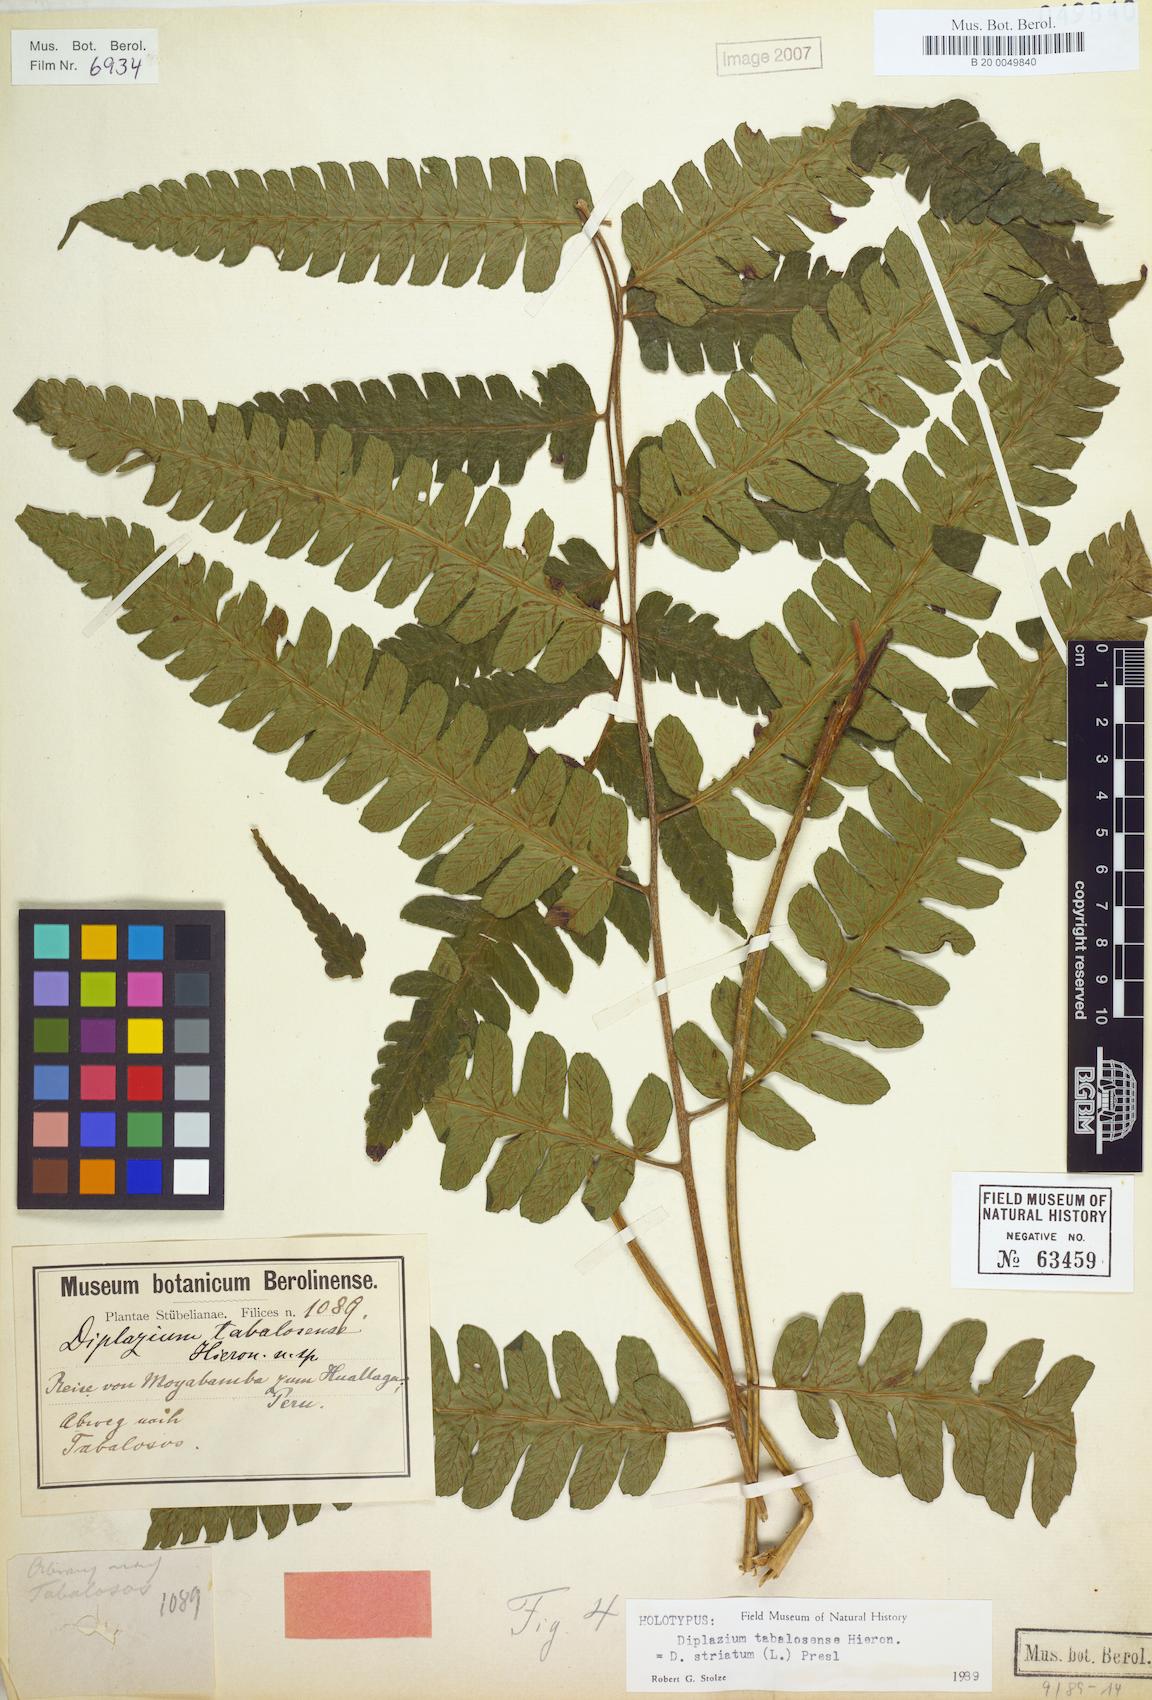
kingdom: Plantae
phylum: Tracheophyta
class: Polypodiopsida
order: Polypodiales
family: Athyriaceae
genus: Diplazium
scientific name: Diplazium striatum
